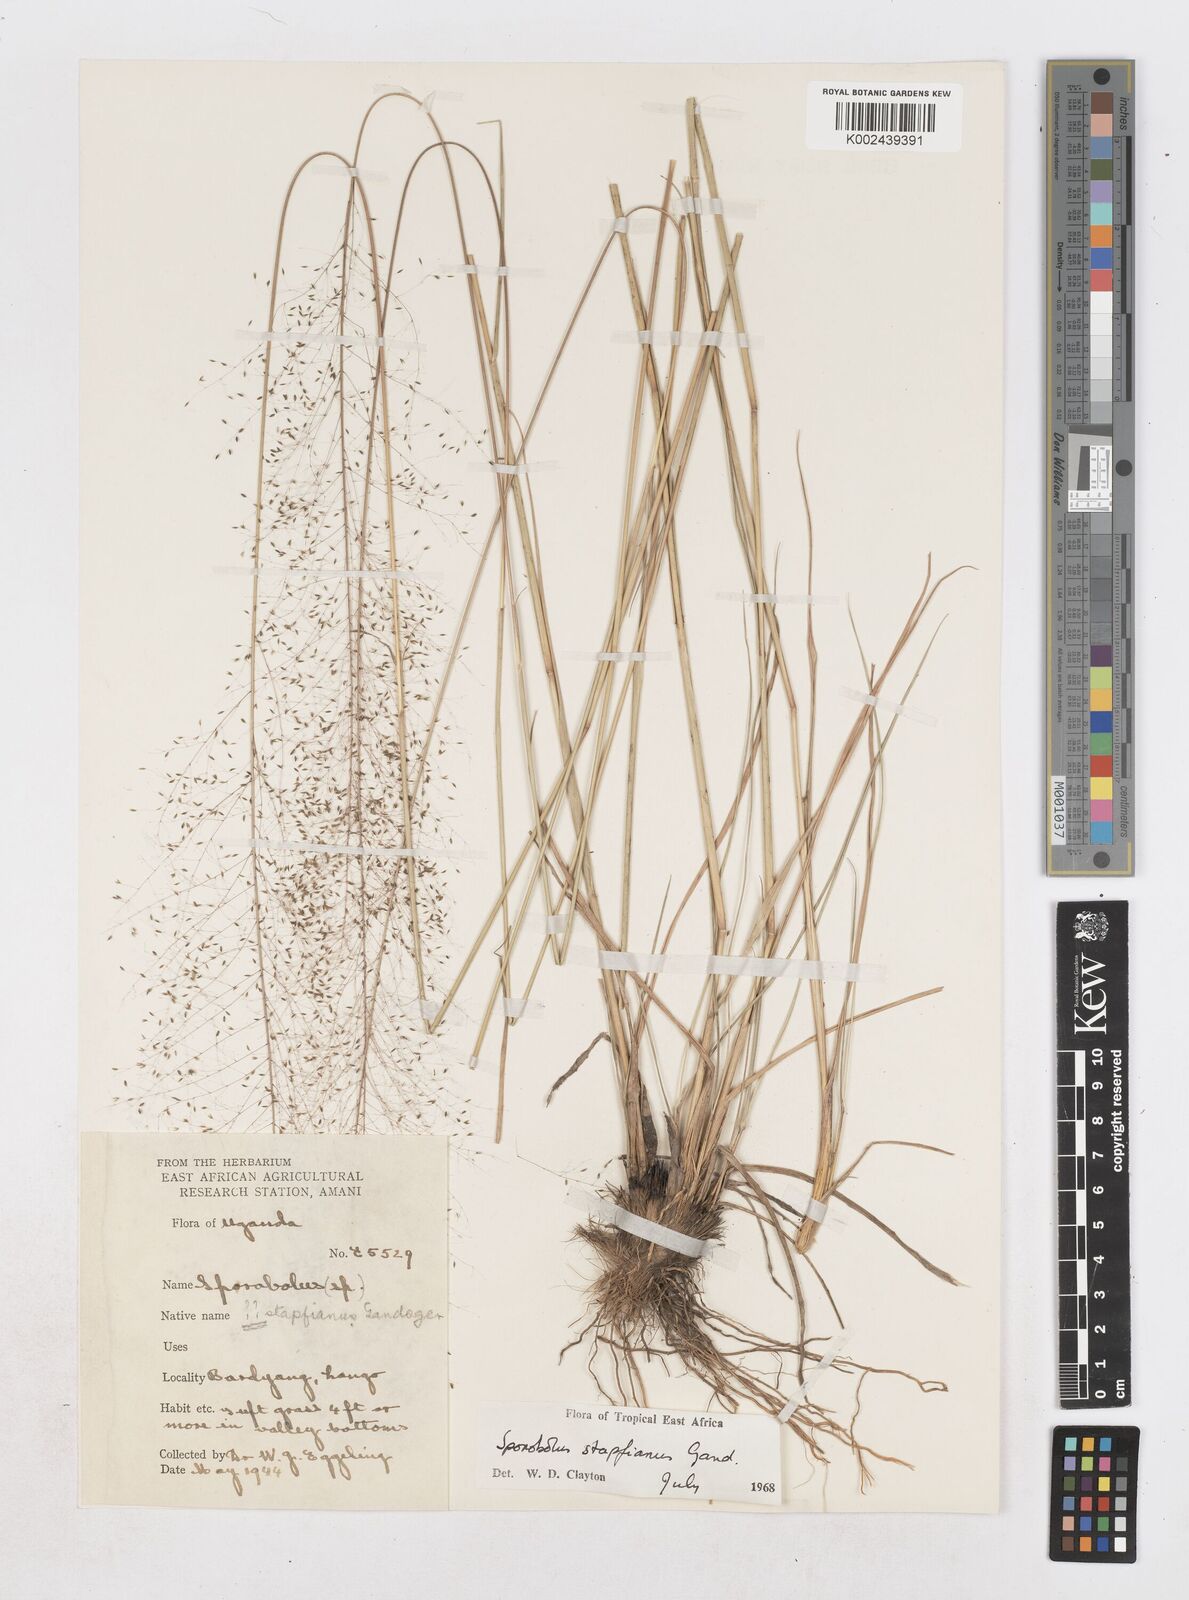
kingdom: Plantae
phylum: Tracheophyta
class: Liliopsida
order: Poales
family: Poaceae
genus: Sporobolus
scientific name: Sporobolus stapfianus
